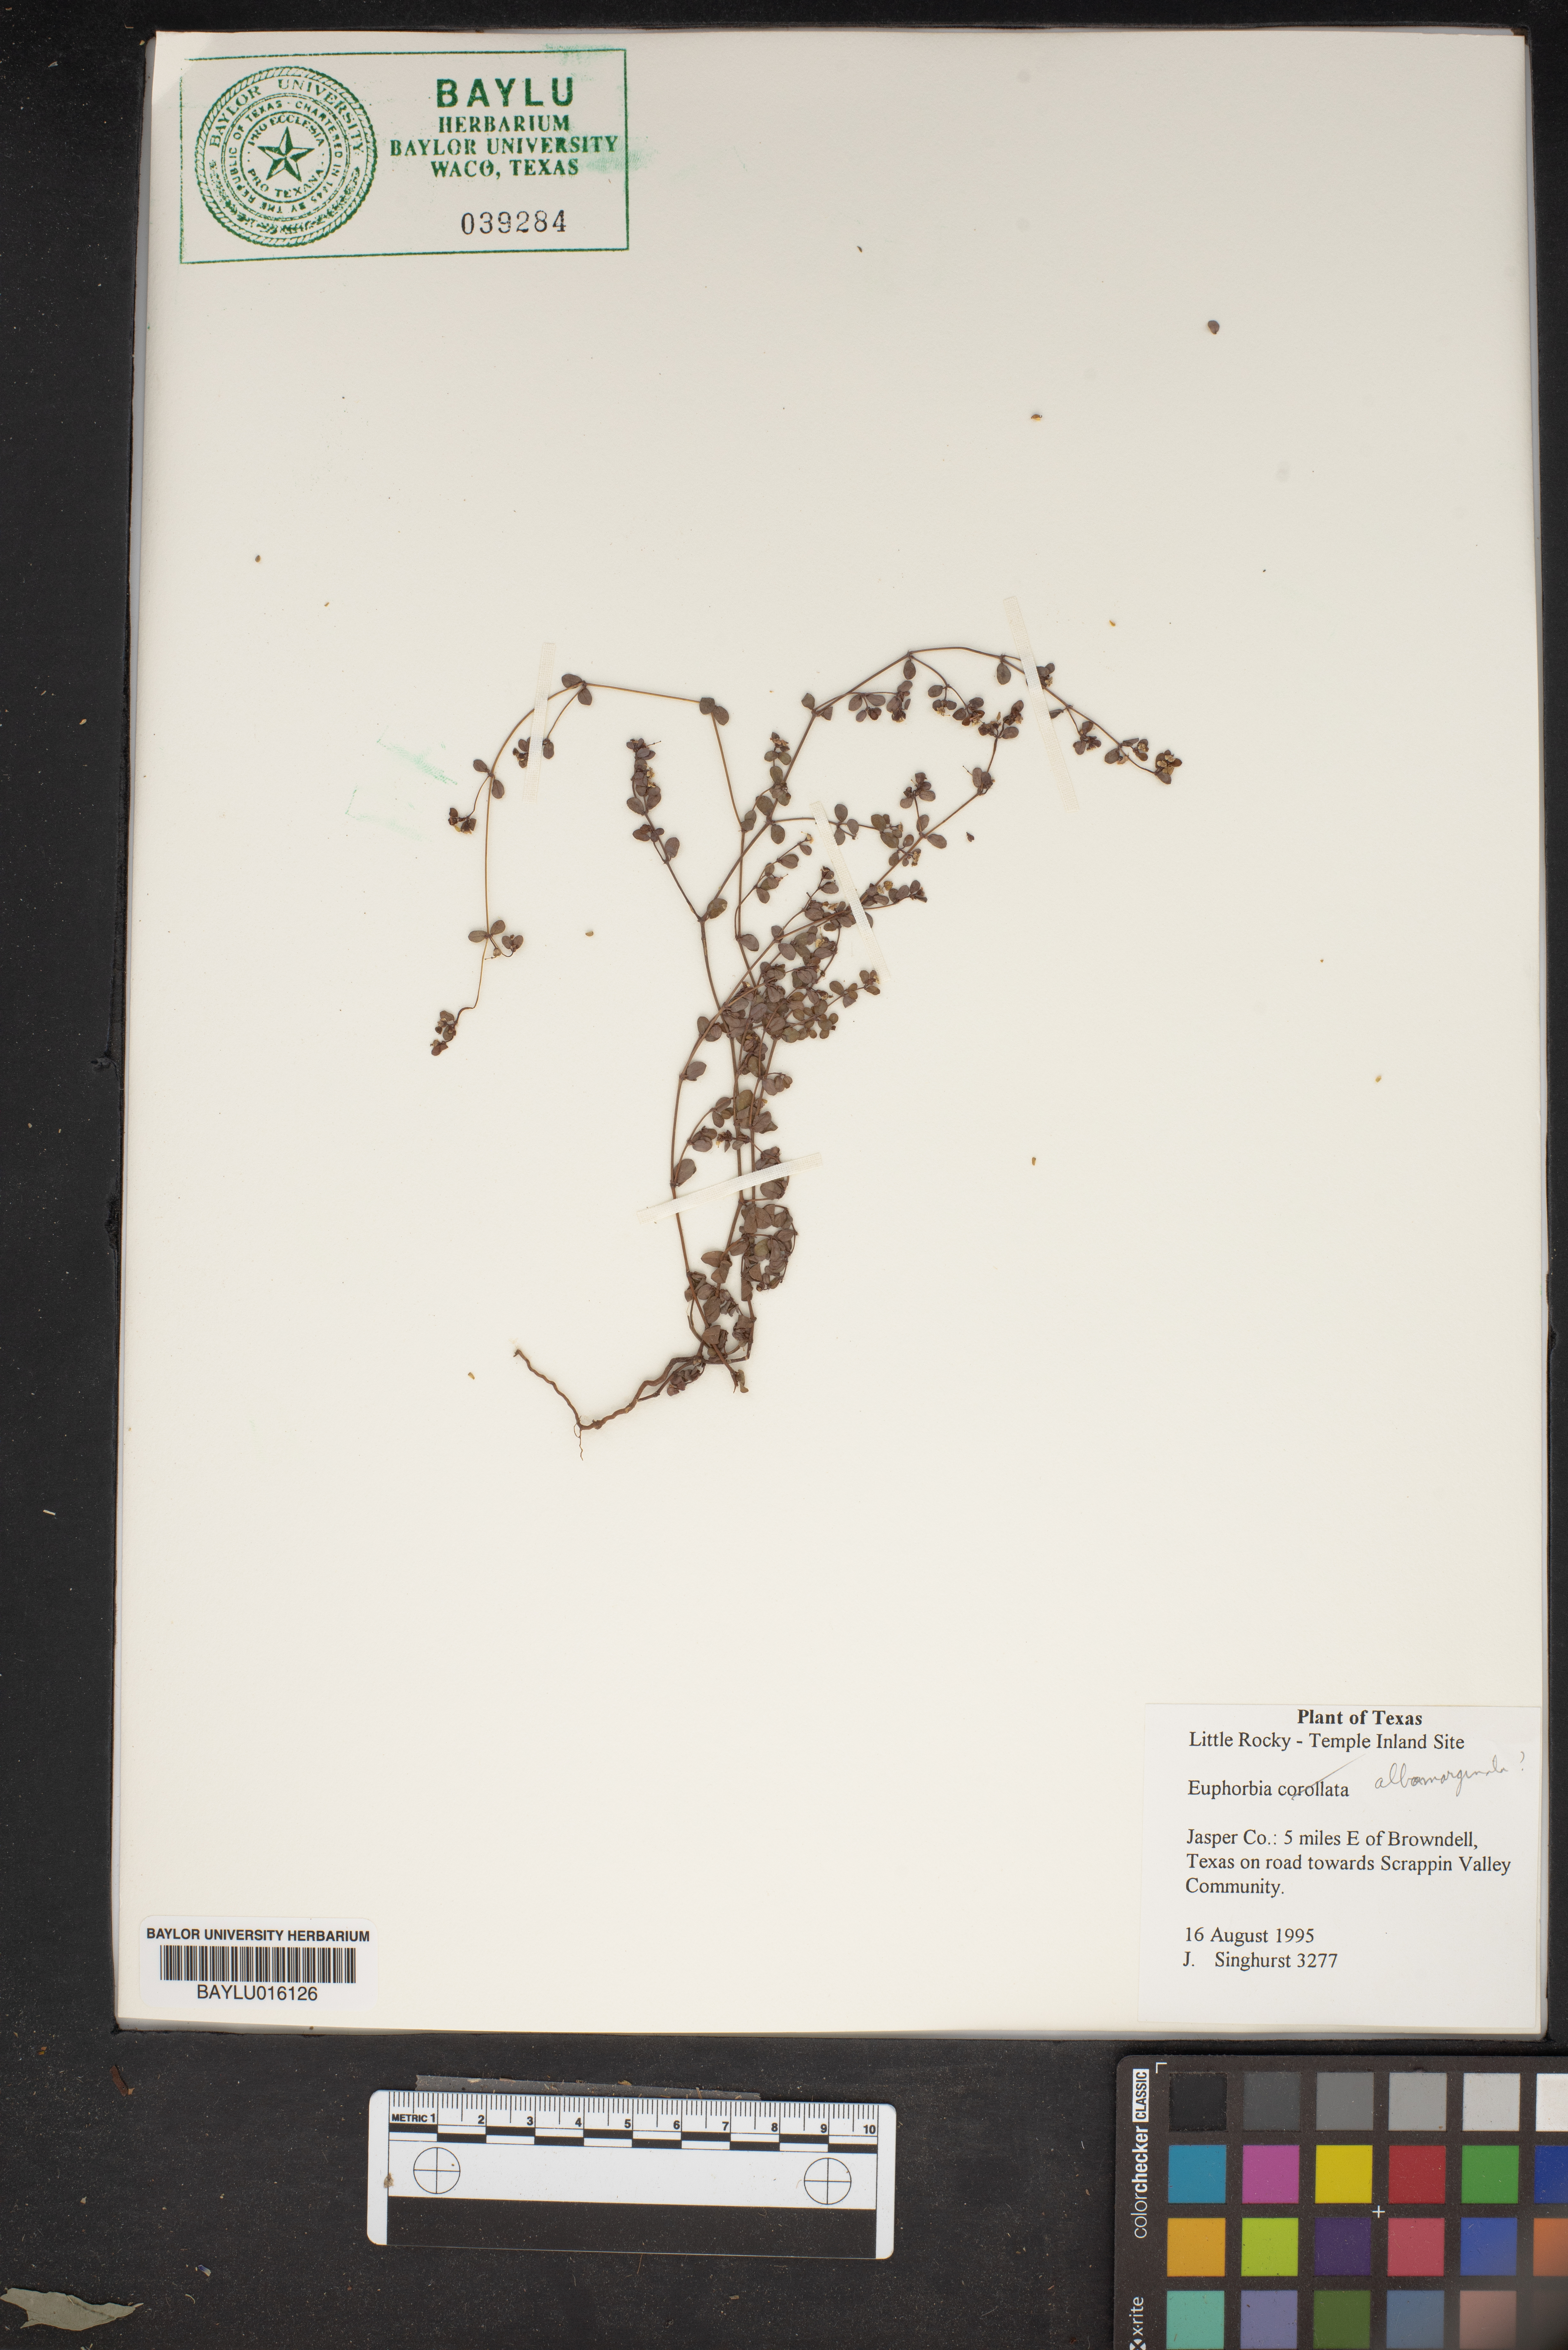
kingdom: Plantae
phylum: Tracheophyta
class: Magnoliopsida
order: Malpighiales
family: Euphorbiaceae
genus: Euphorbia
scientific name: Euphorbia albomarginata
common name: Whitemargin sandmat
